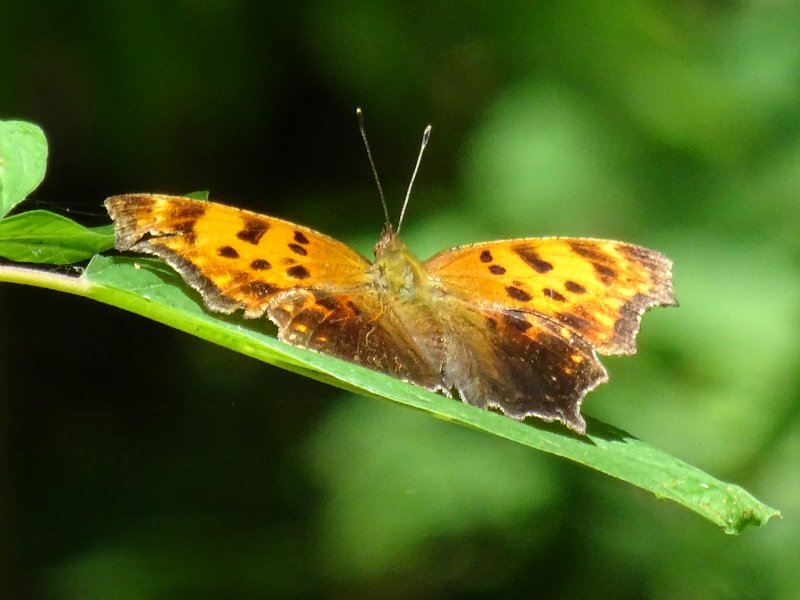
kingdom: Animalia
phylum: Arthropoda
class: Insecta
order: Lepidoptera
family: Nymphalidae
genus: Polygonia
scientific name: Polygonia comma
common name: Eastern Comma
